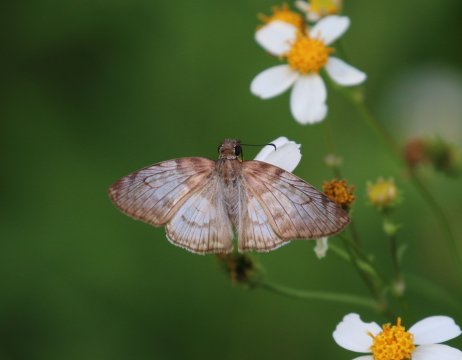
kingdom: Animalia
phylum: Arthropoda
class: Insecta
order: Lepidoptera
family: Hesperiidae
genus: Mylon
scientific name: Mylon pelopidas
